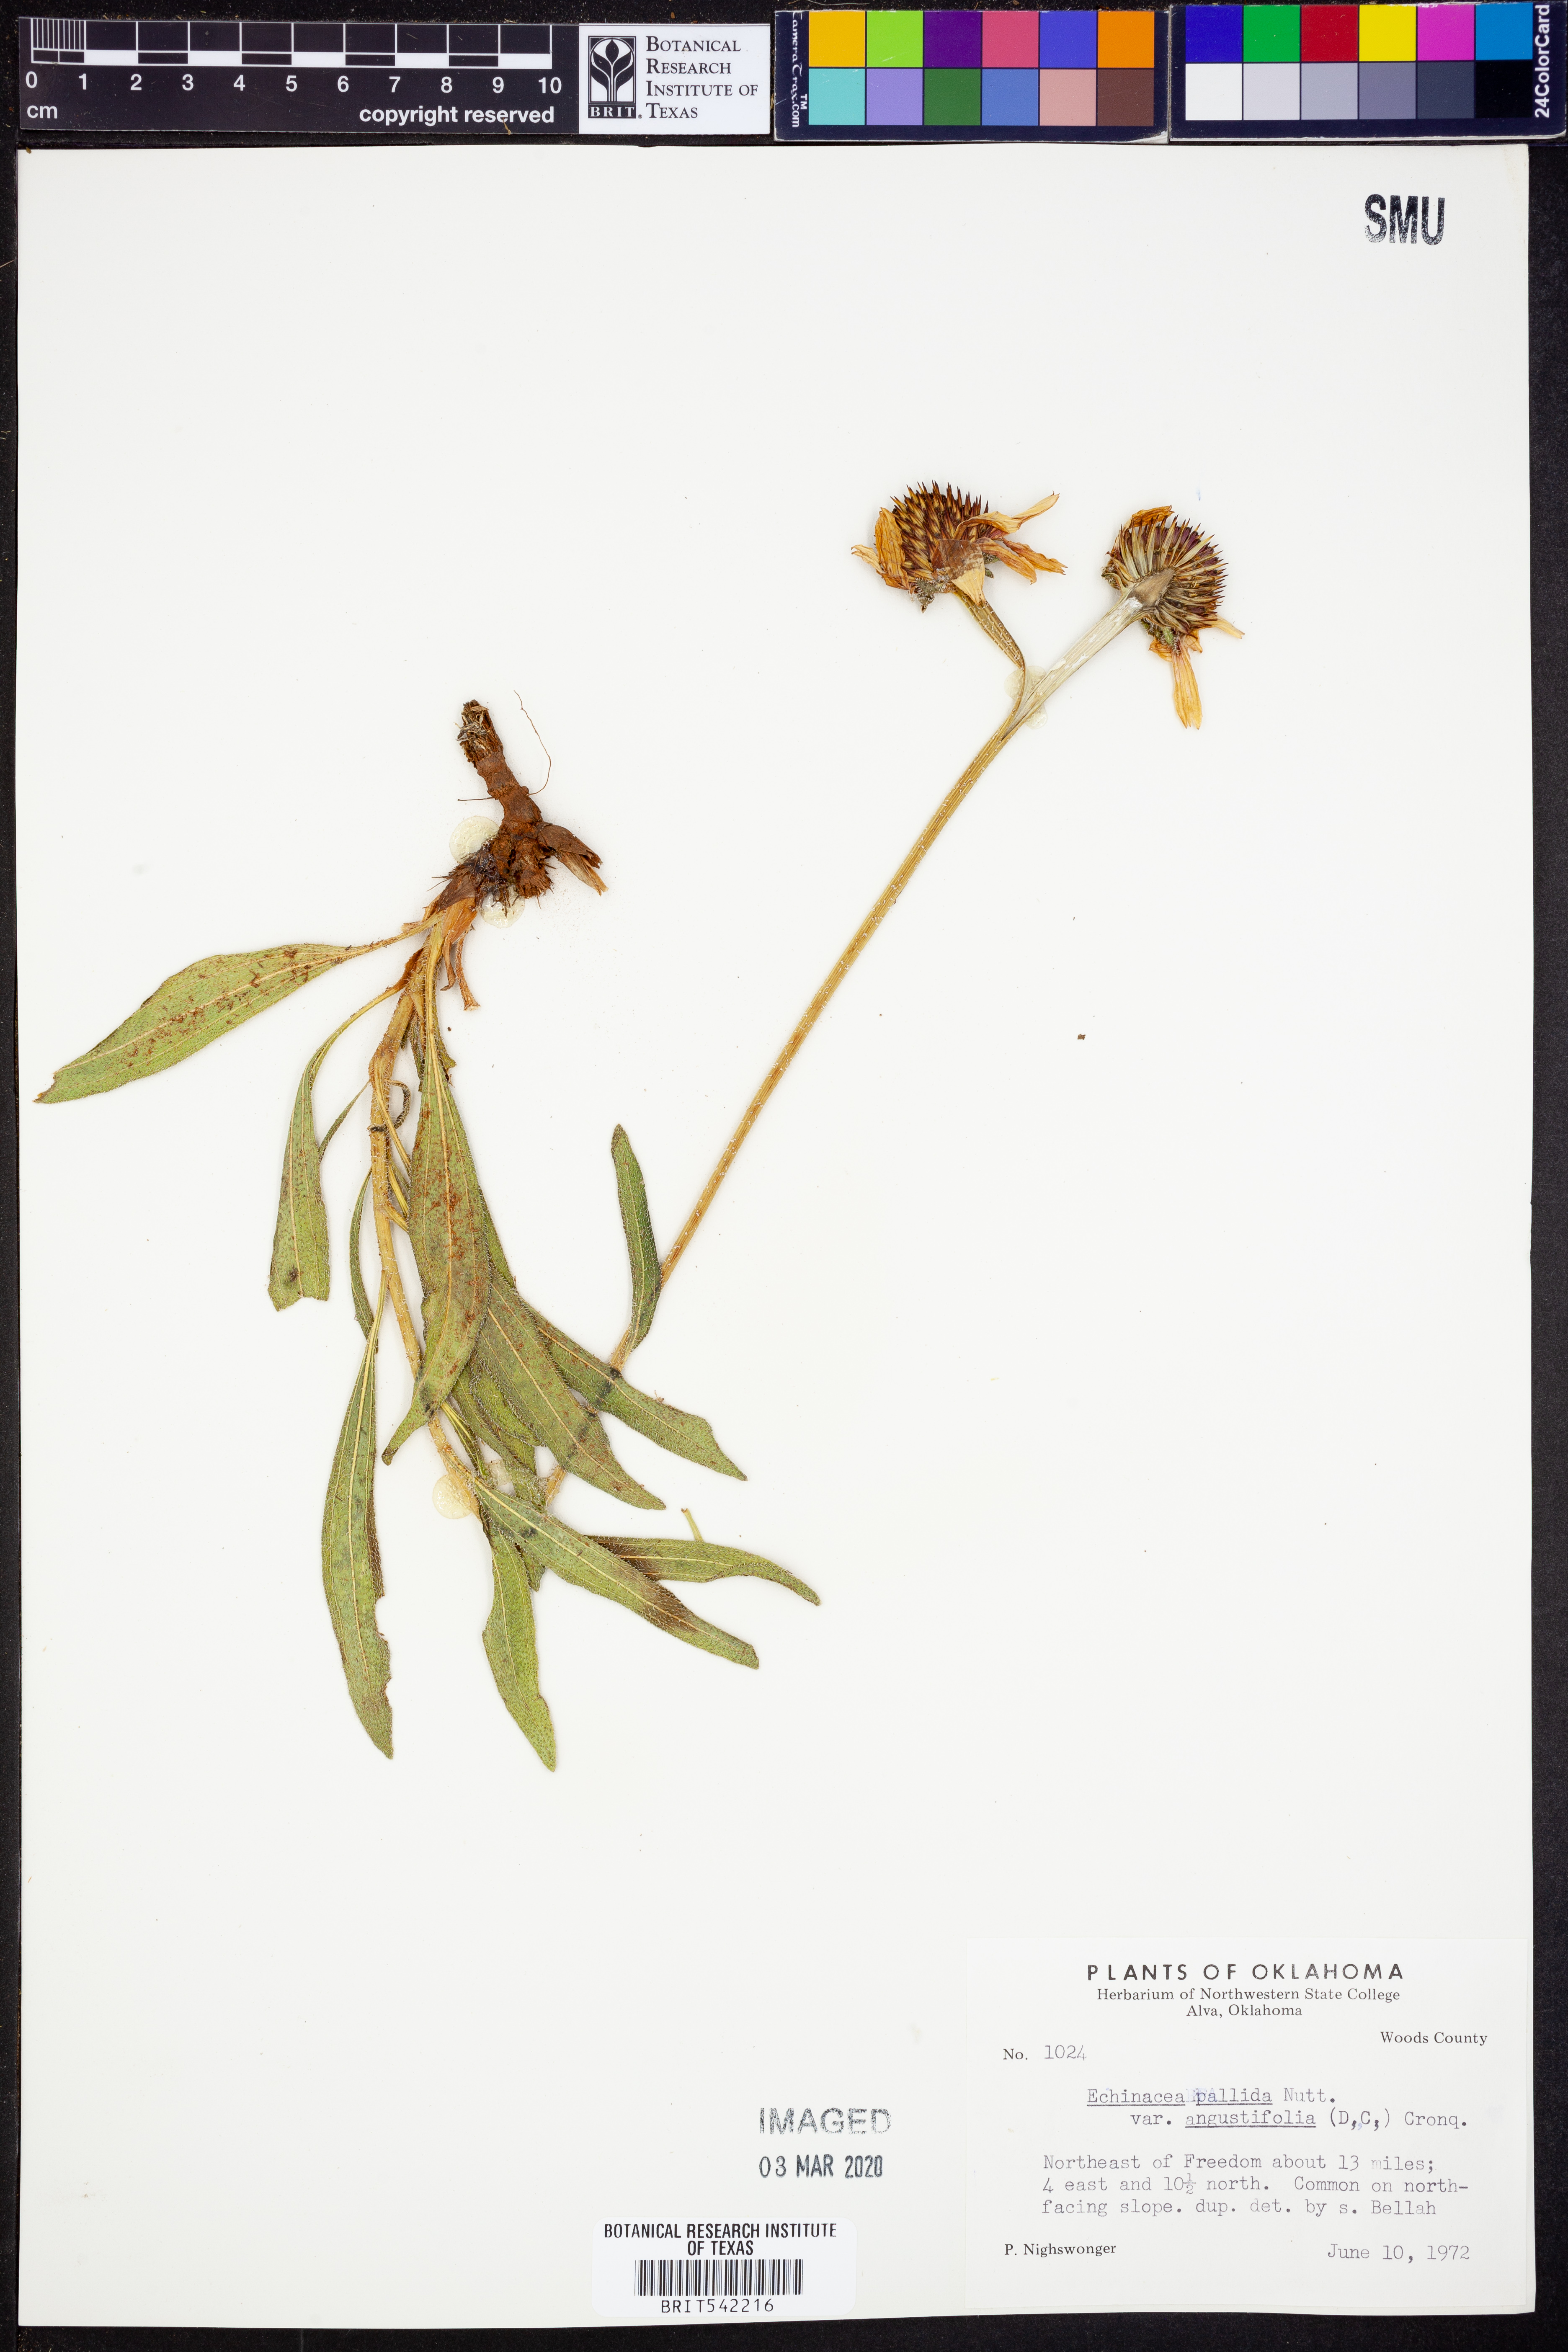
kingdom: Plantae
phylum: Tracheophyta
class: Magnoliopsida
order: Asterales
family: Asteraceae
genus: Echinacea
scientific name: Echinacea angustifolia
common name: Black-sampson echinacea
